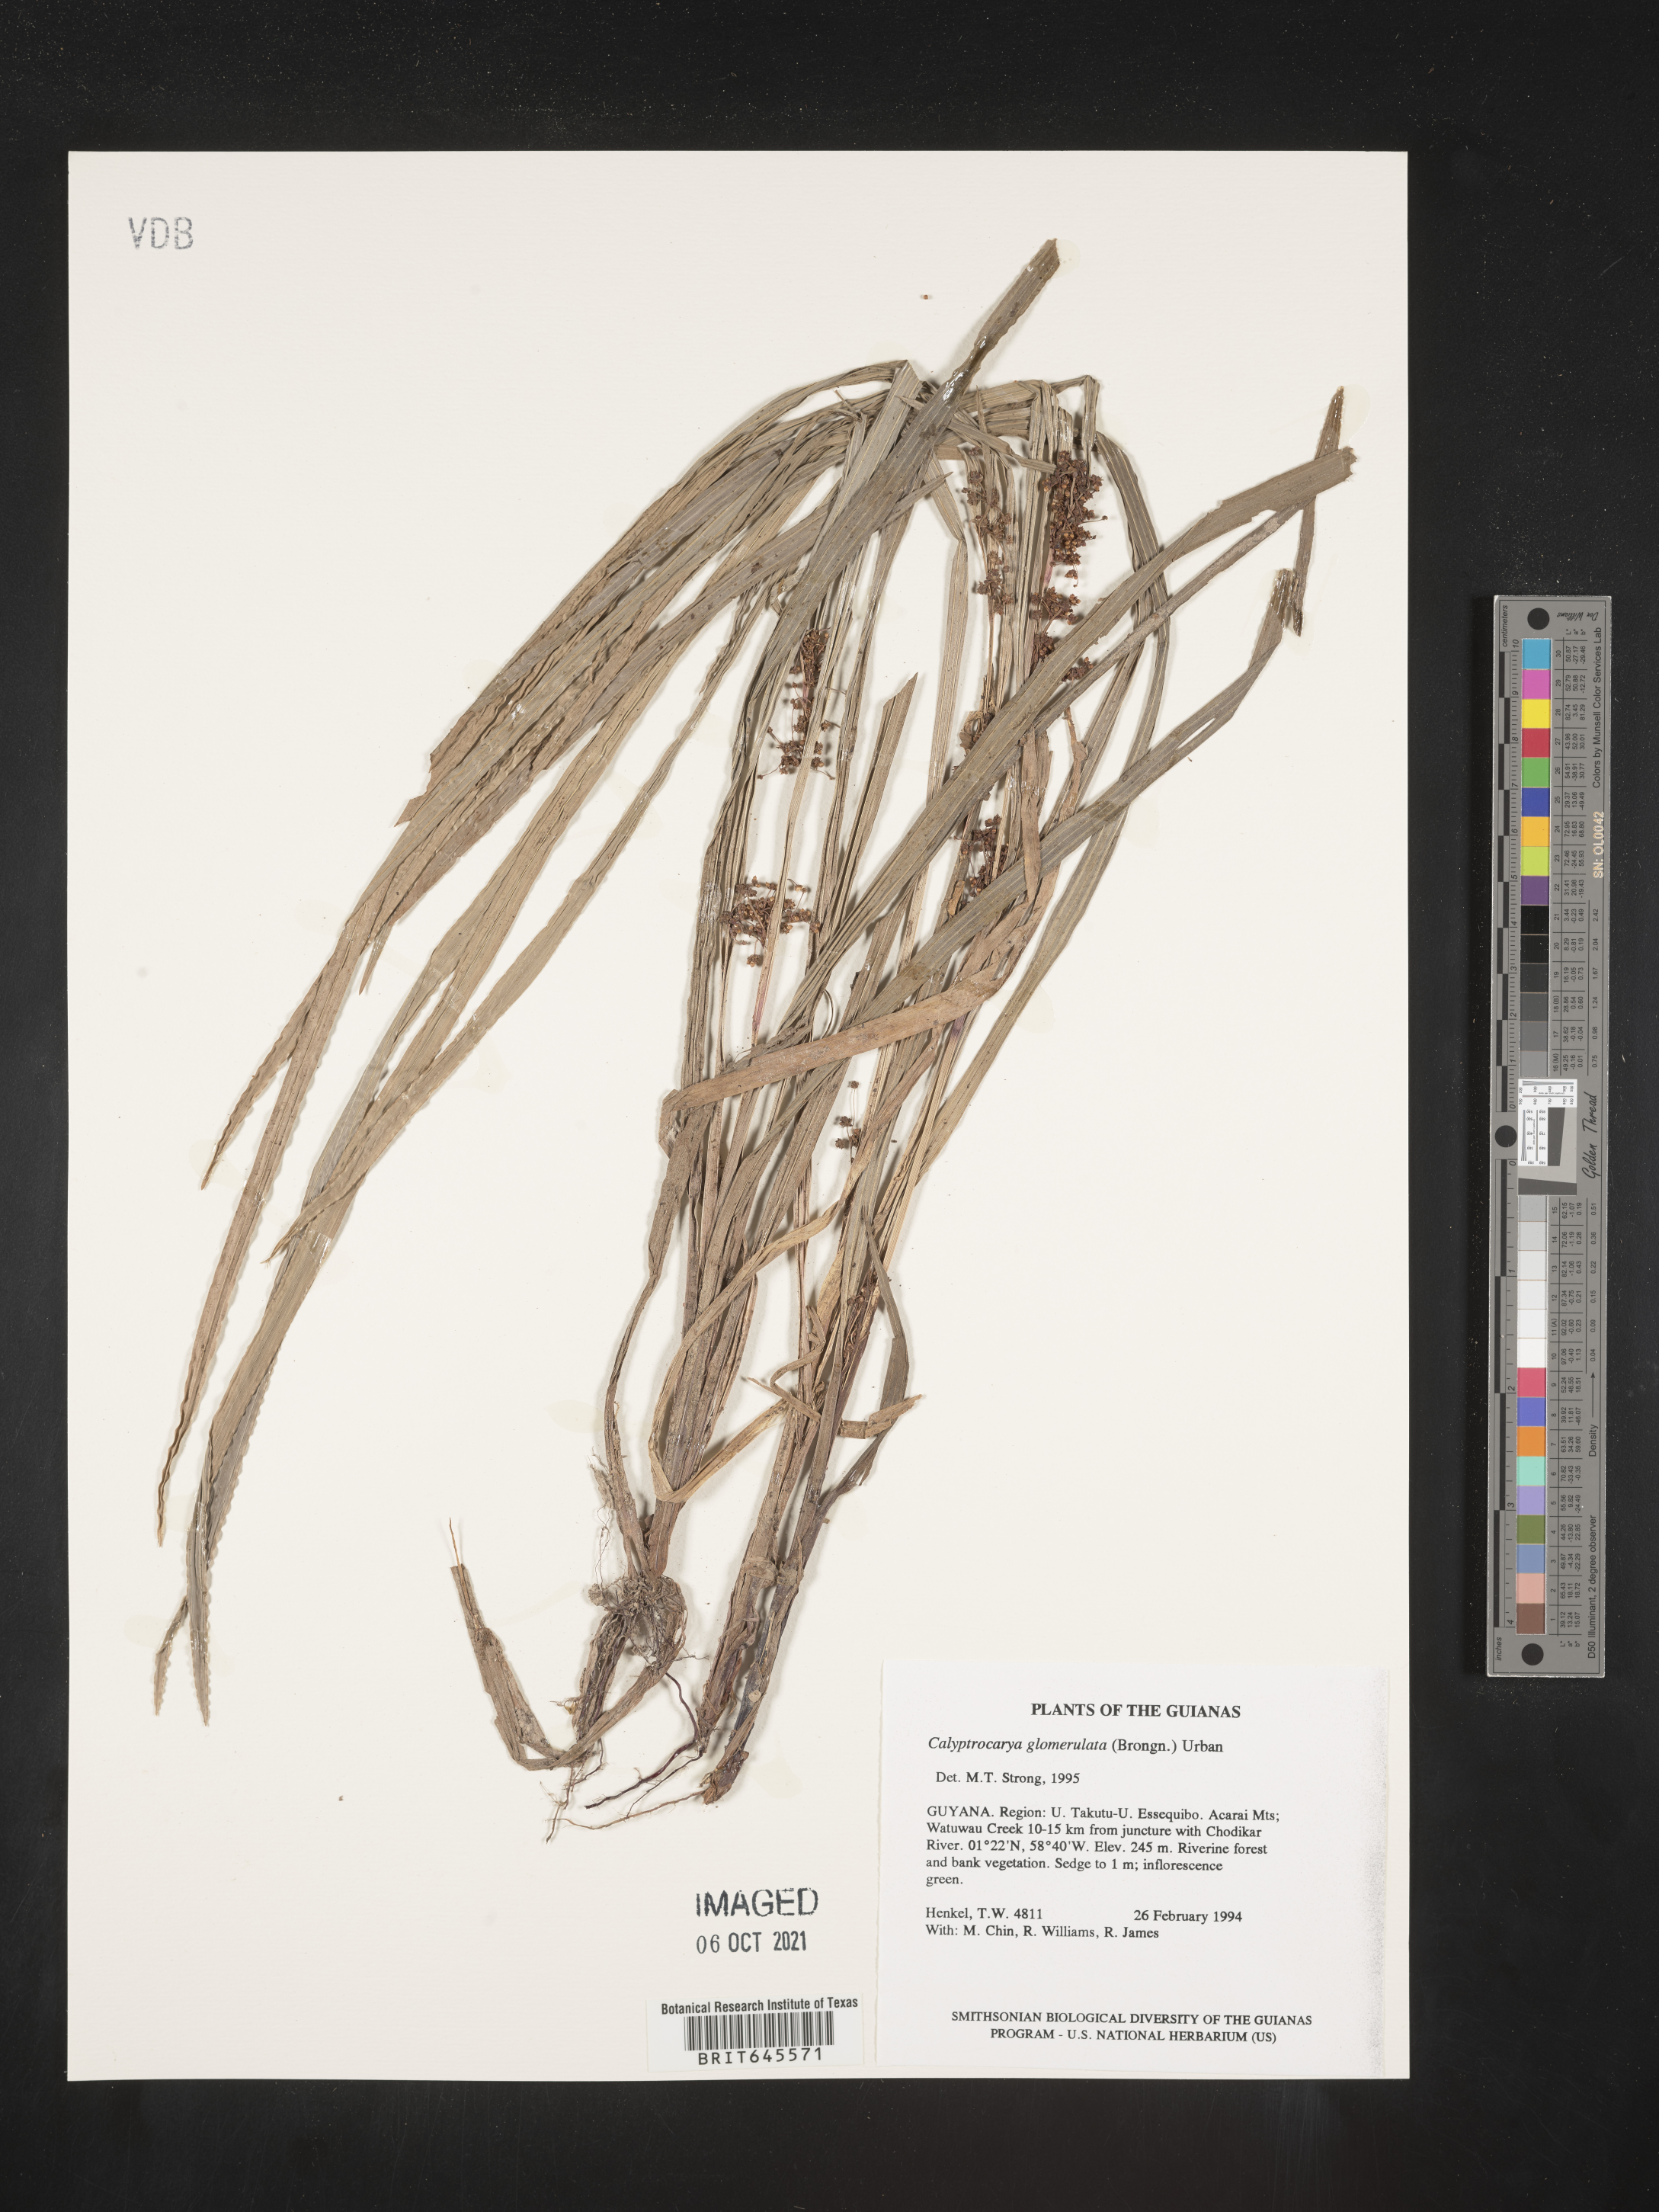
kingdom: Plantae
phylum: Tracheophyta
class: Liliopsida
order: Poales
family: Cyperaceae
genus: Calyptrocarya
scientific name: Calyptrocarya glomerulata
